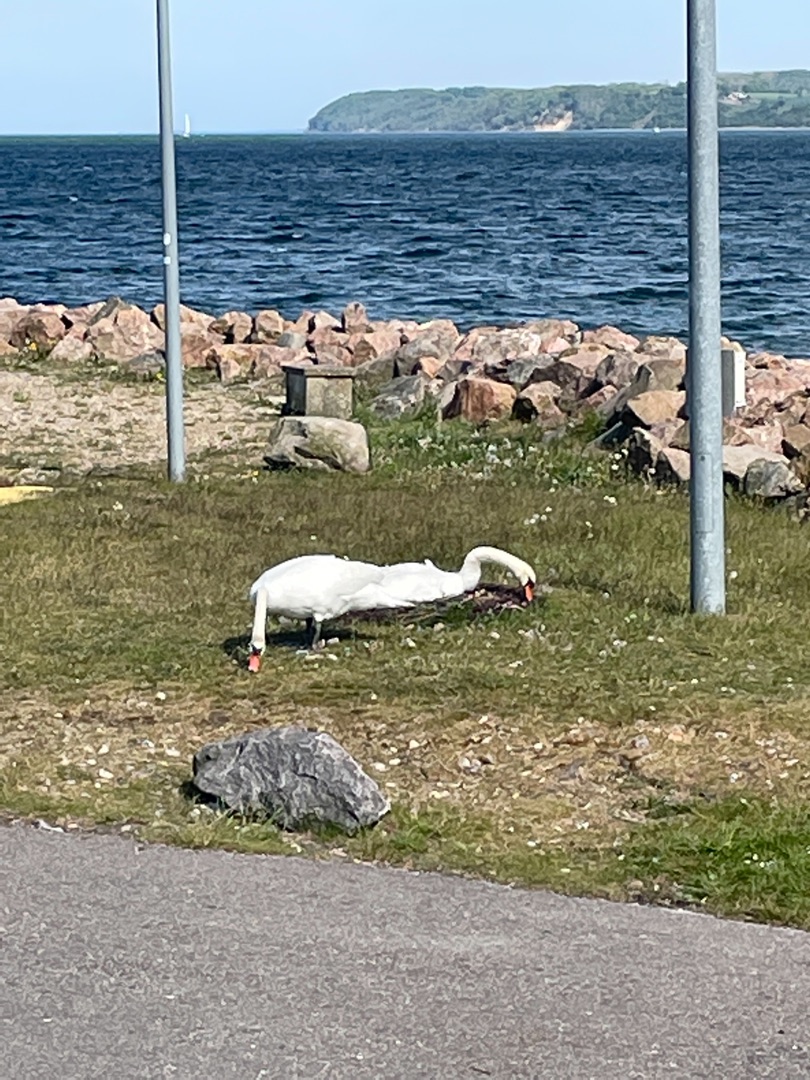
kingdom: Animalia
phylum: Chordata
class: Aves
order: Anseriformes
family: Anatidae
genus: Cygnus
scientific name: Cygnus olor
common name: Knopsvane
